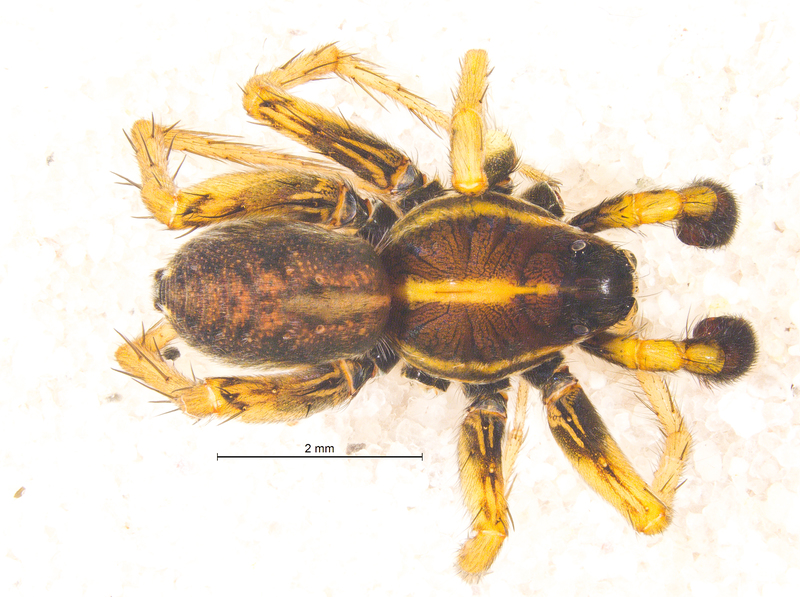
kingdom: Animalia
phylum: Arthropoda
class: Arachnida
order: Araneae
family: Lycosidae
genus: Pardosa
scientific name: Pardosa palustris
